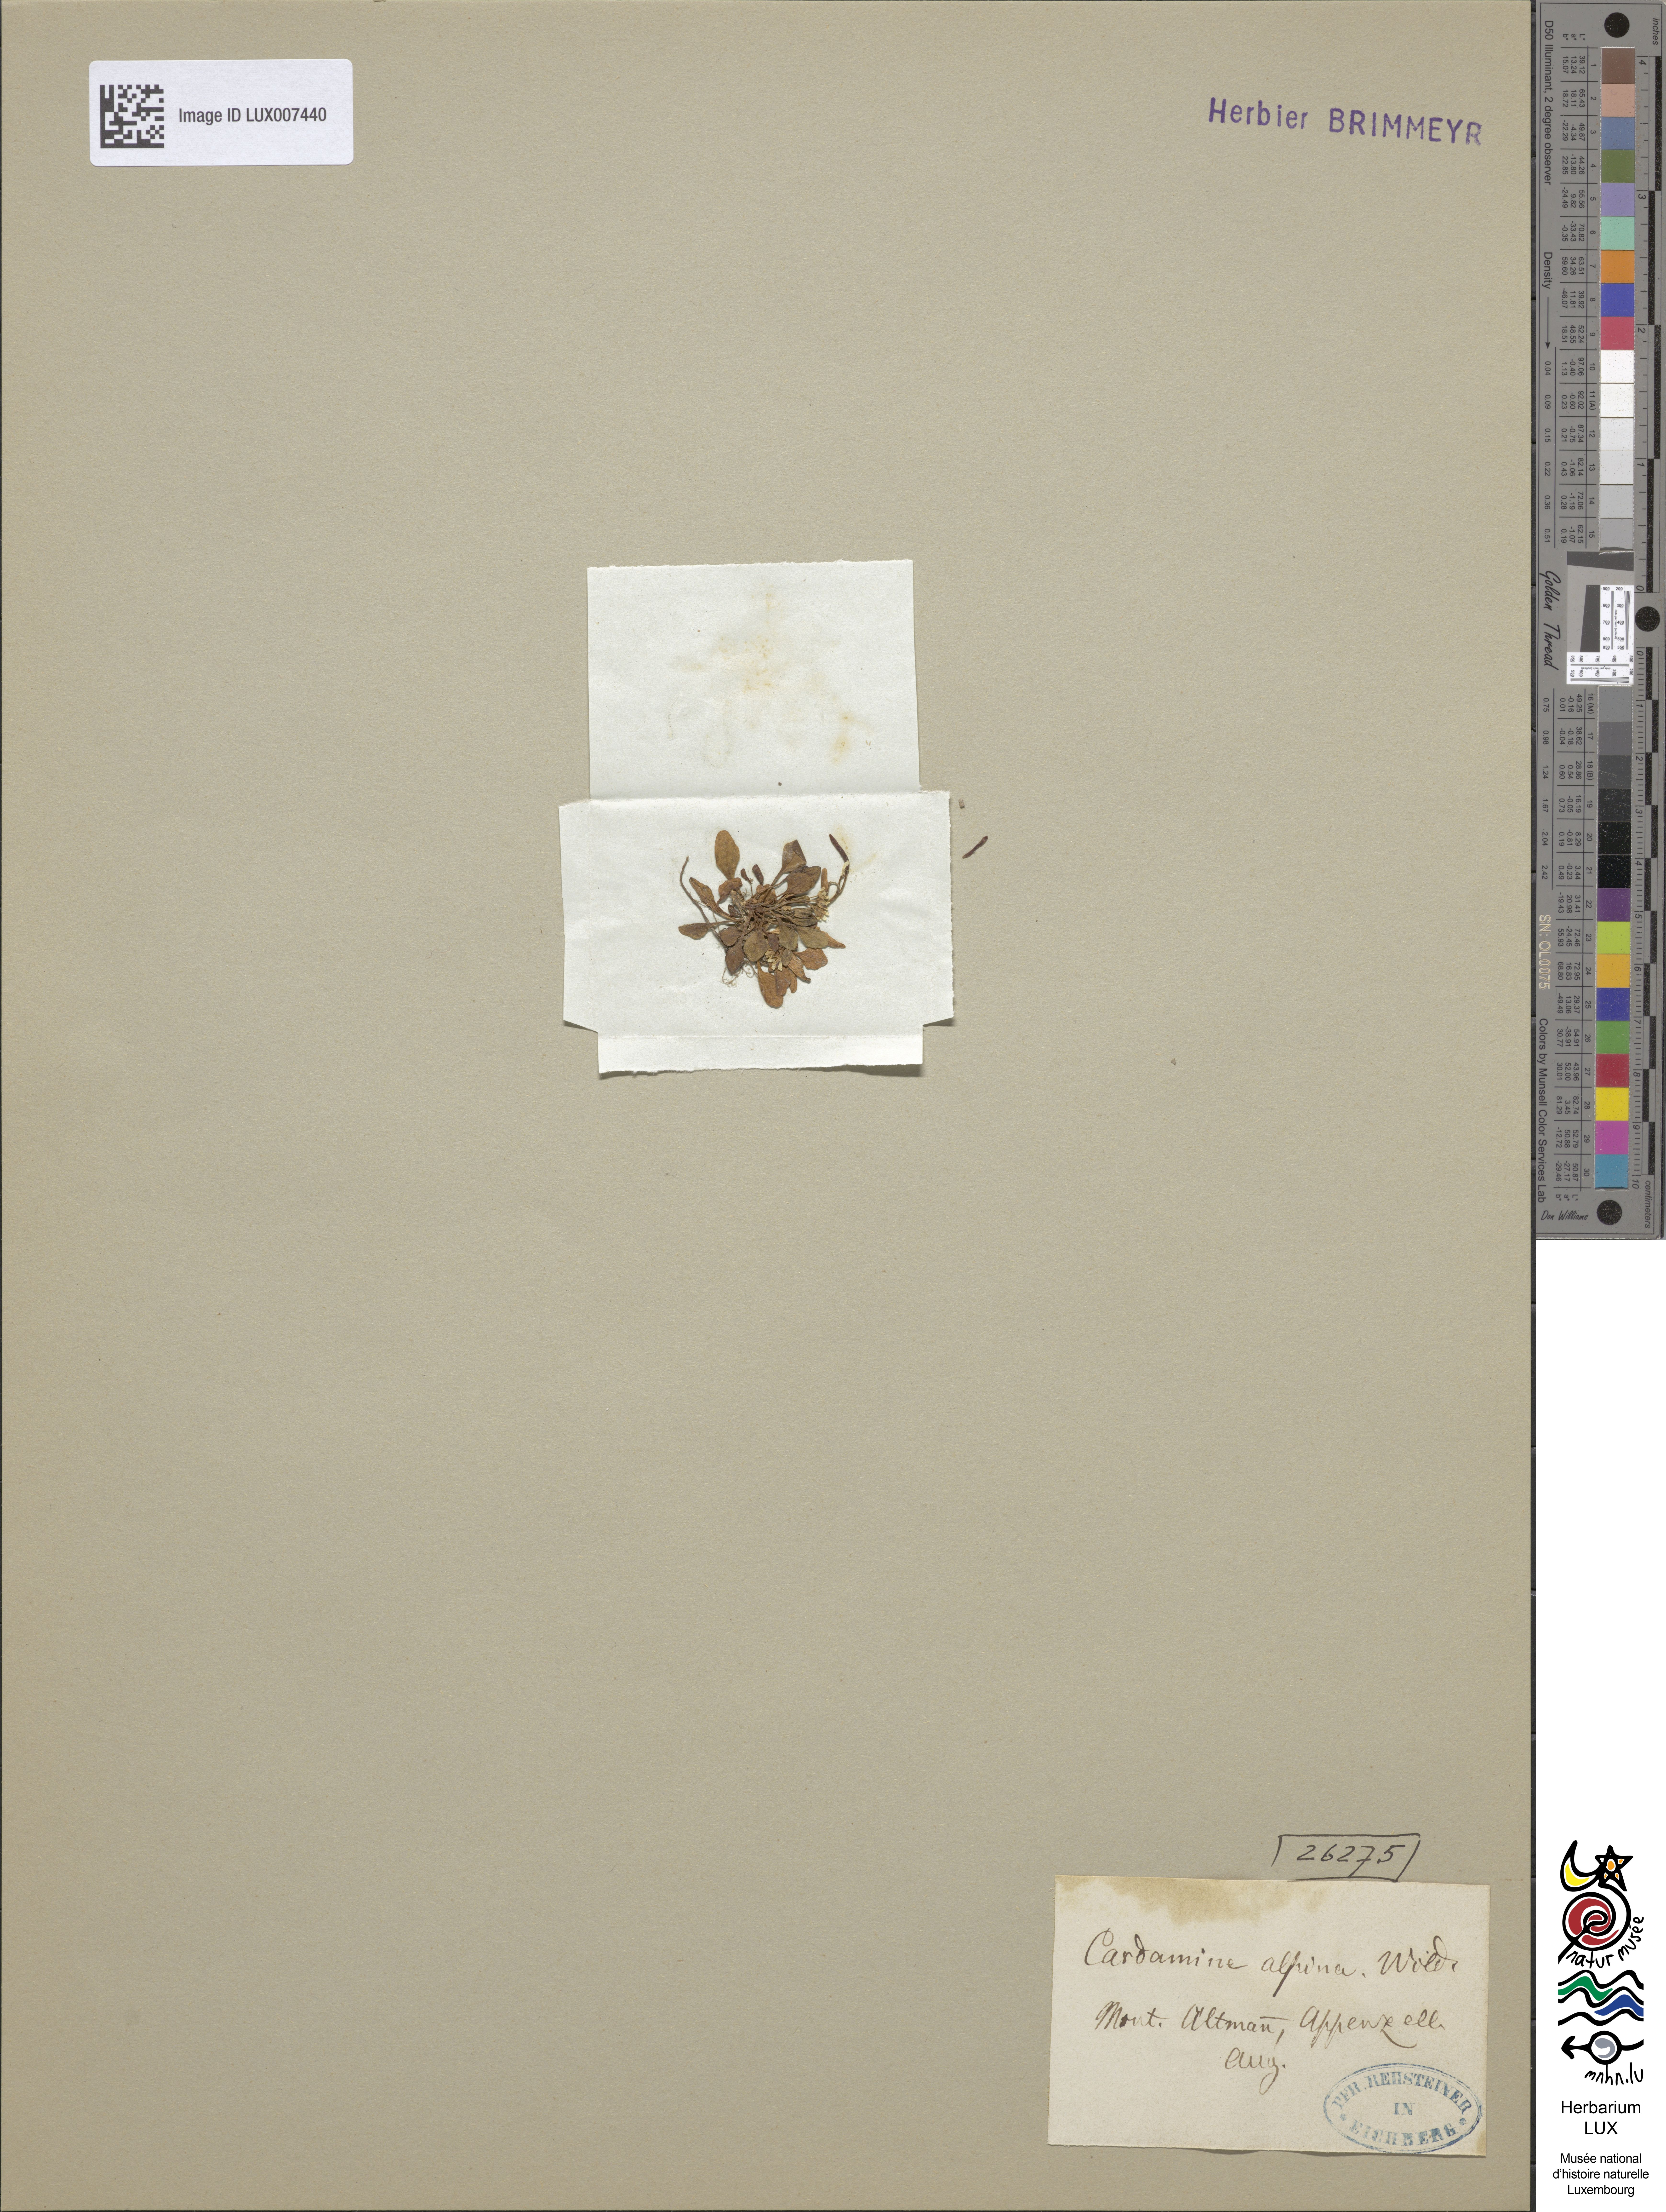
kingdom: Plantae
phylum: Tracheophyta
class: Magnoliopsida
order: Brassicales
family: Brassicaceae
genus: Cardamine
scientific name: Cardamine bellidifolia
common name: Alpine bittercress
